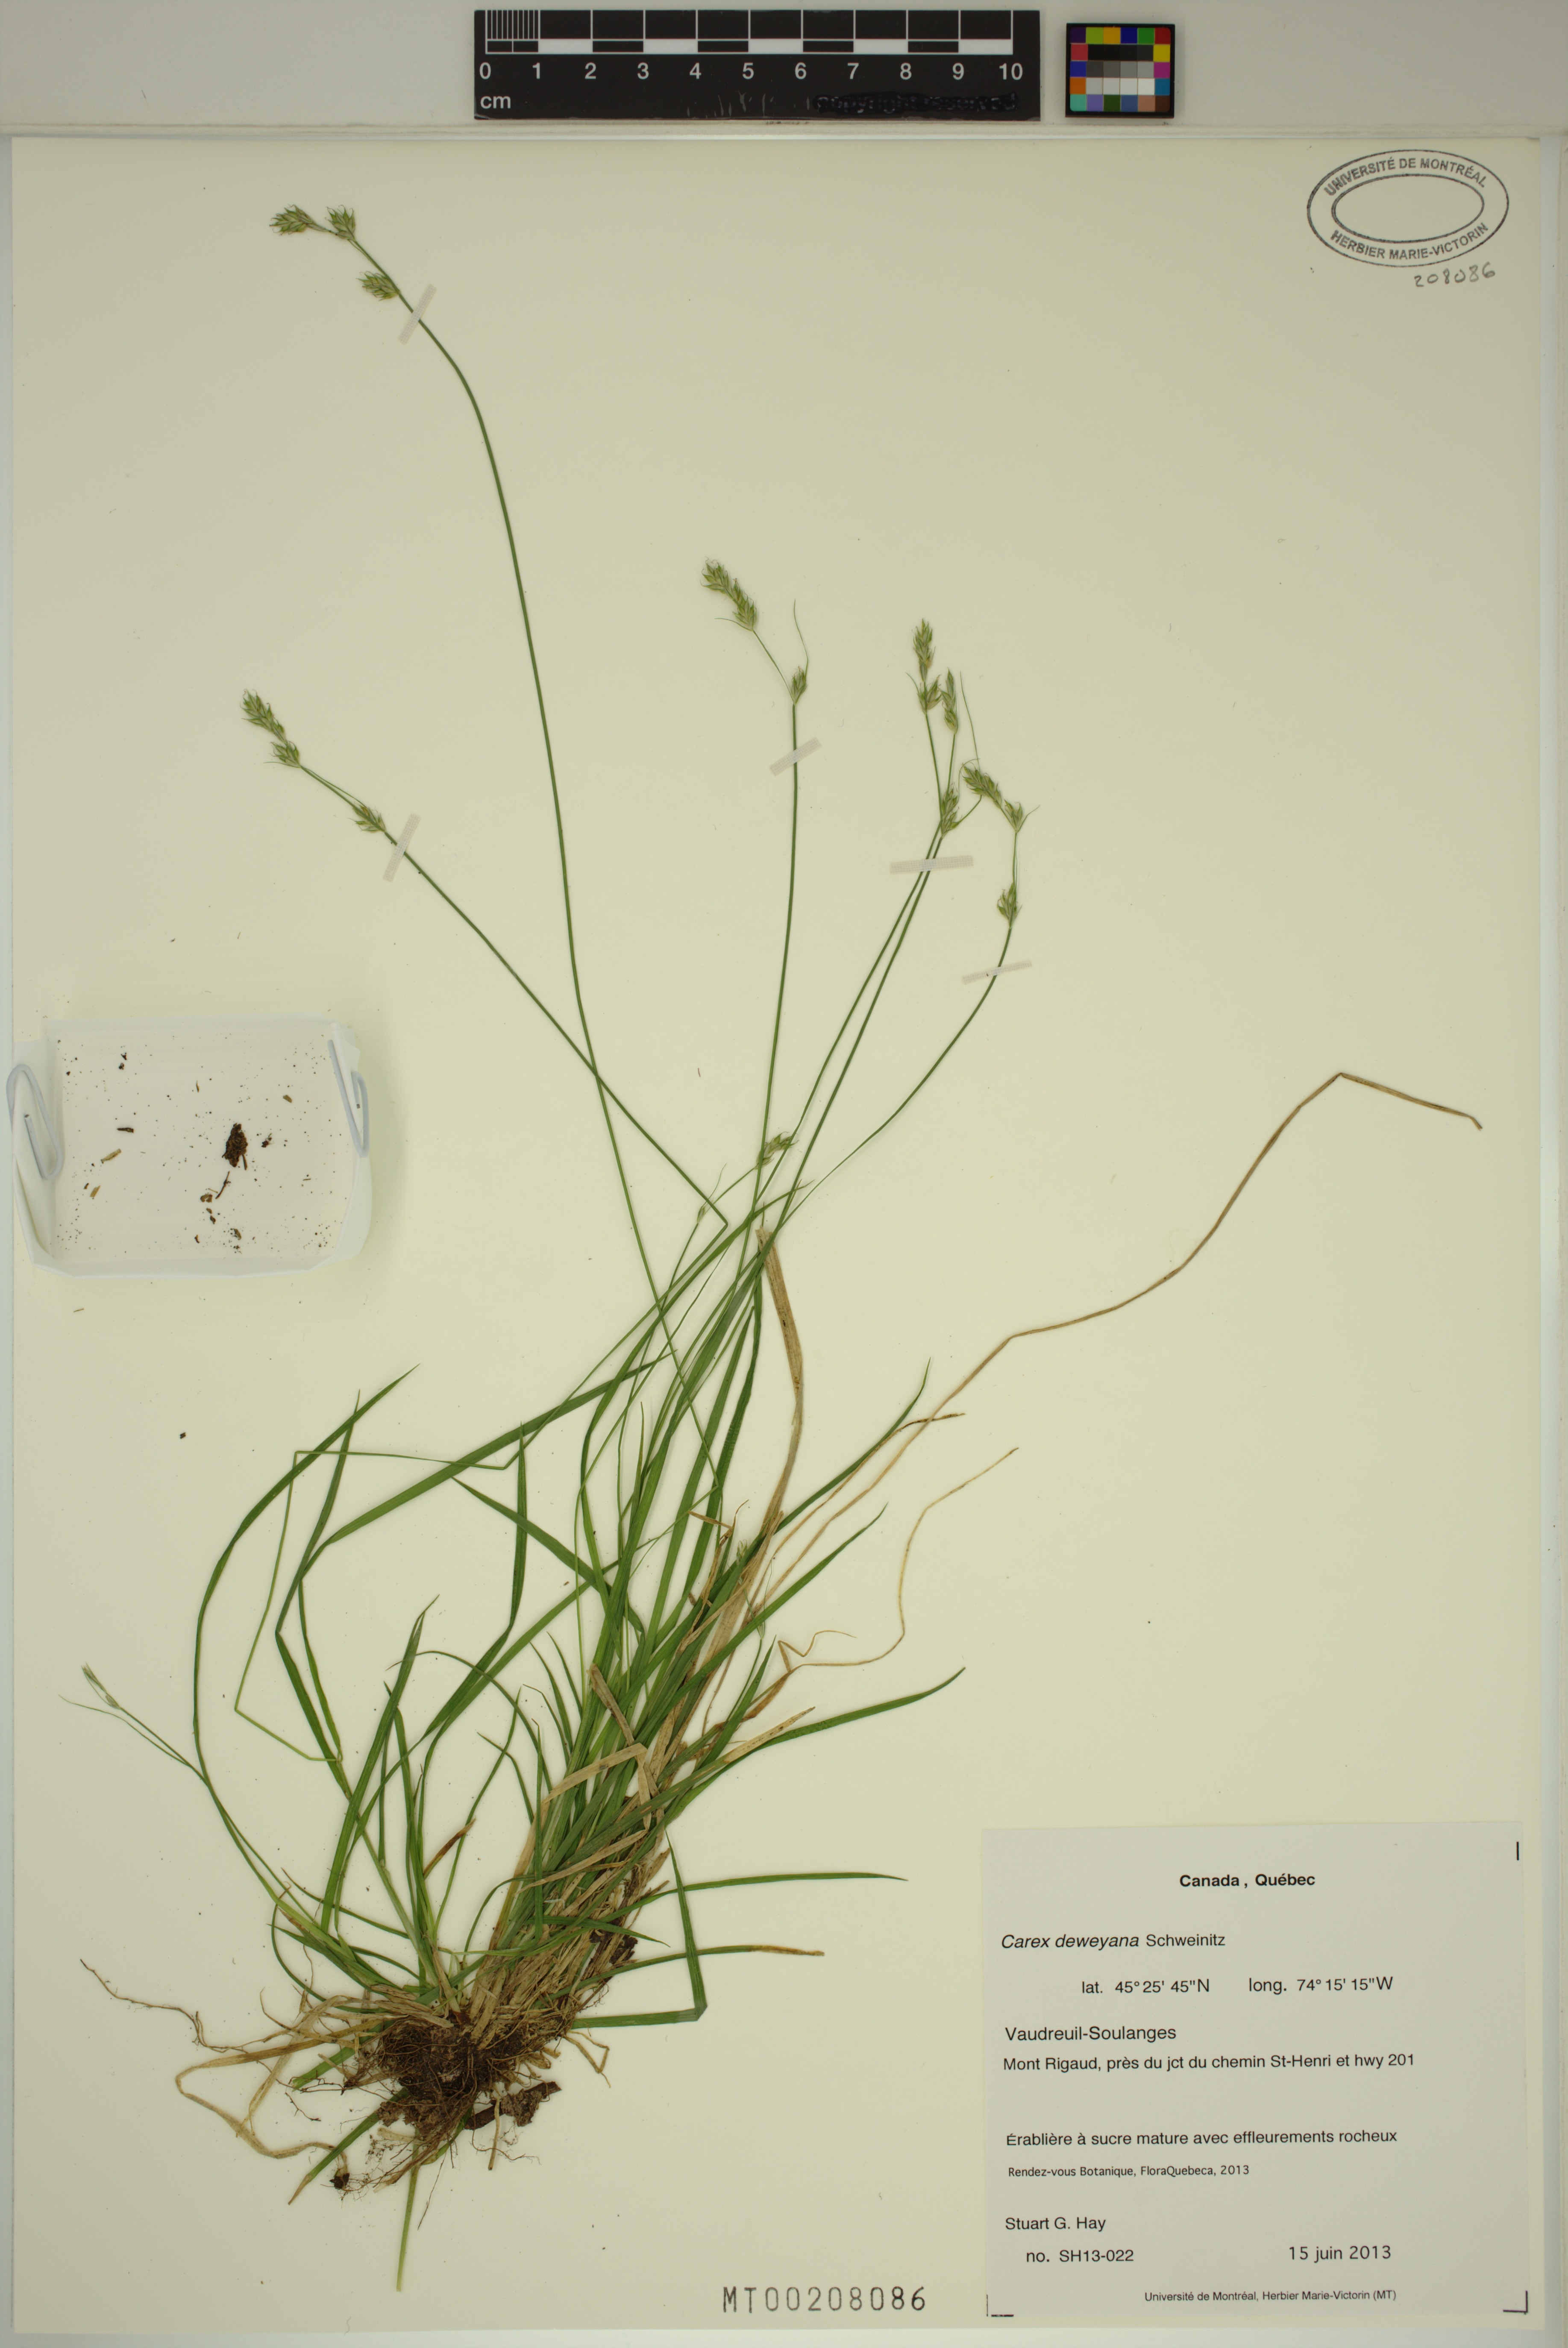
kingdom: Plantae
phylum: Tracheophyta
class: Liliopsida
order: Poales
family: Cyperaceae
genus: Carex
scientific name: Carex deweyana
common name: Dewey's sedge
